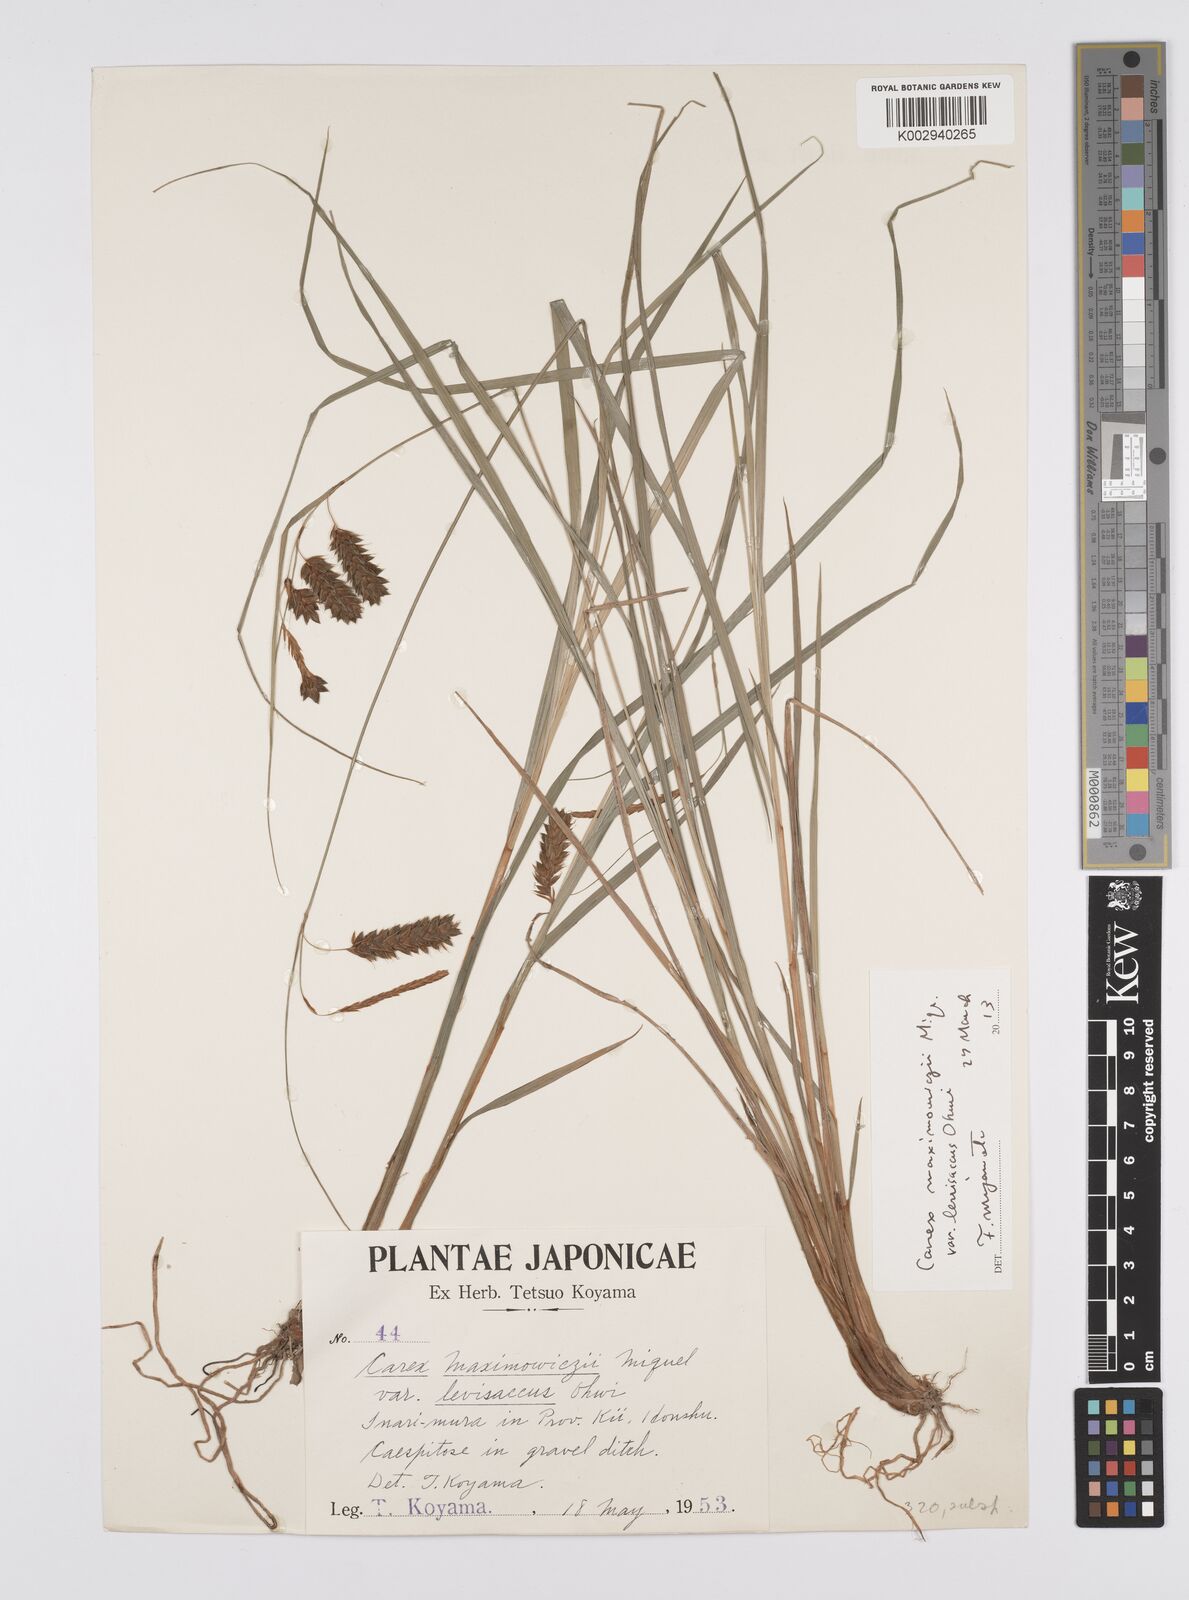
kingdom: Plantae
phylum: Tracheophyta
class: Liliopsida
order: Poales
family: Cyperaceae
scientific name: Cyperaceae
